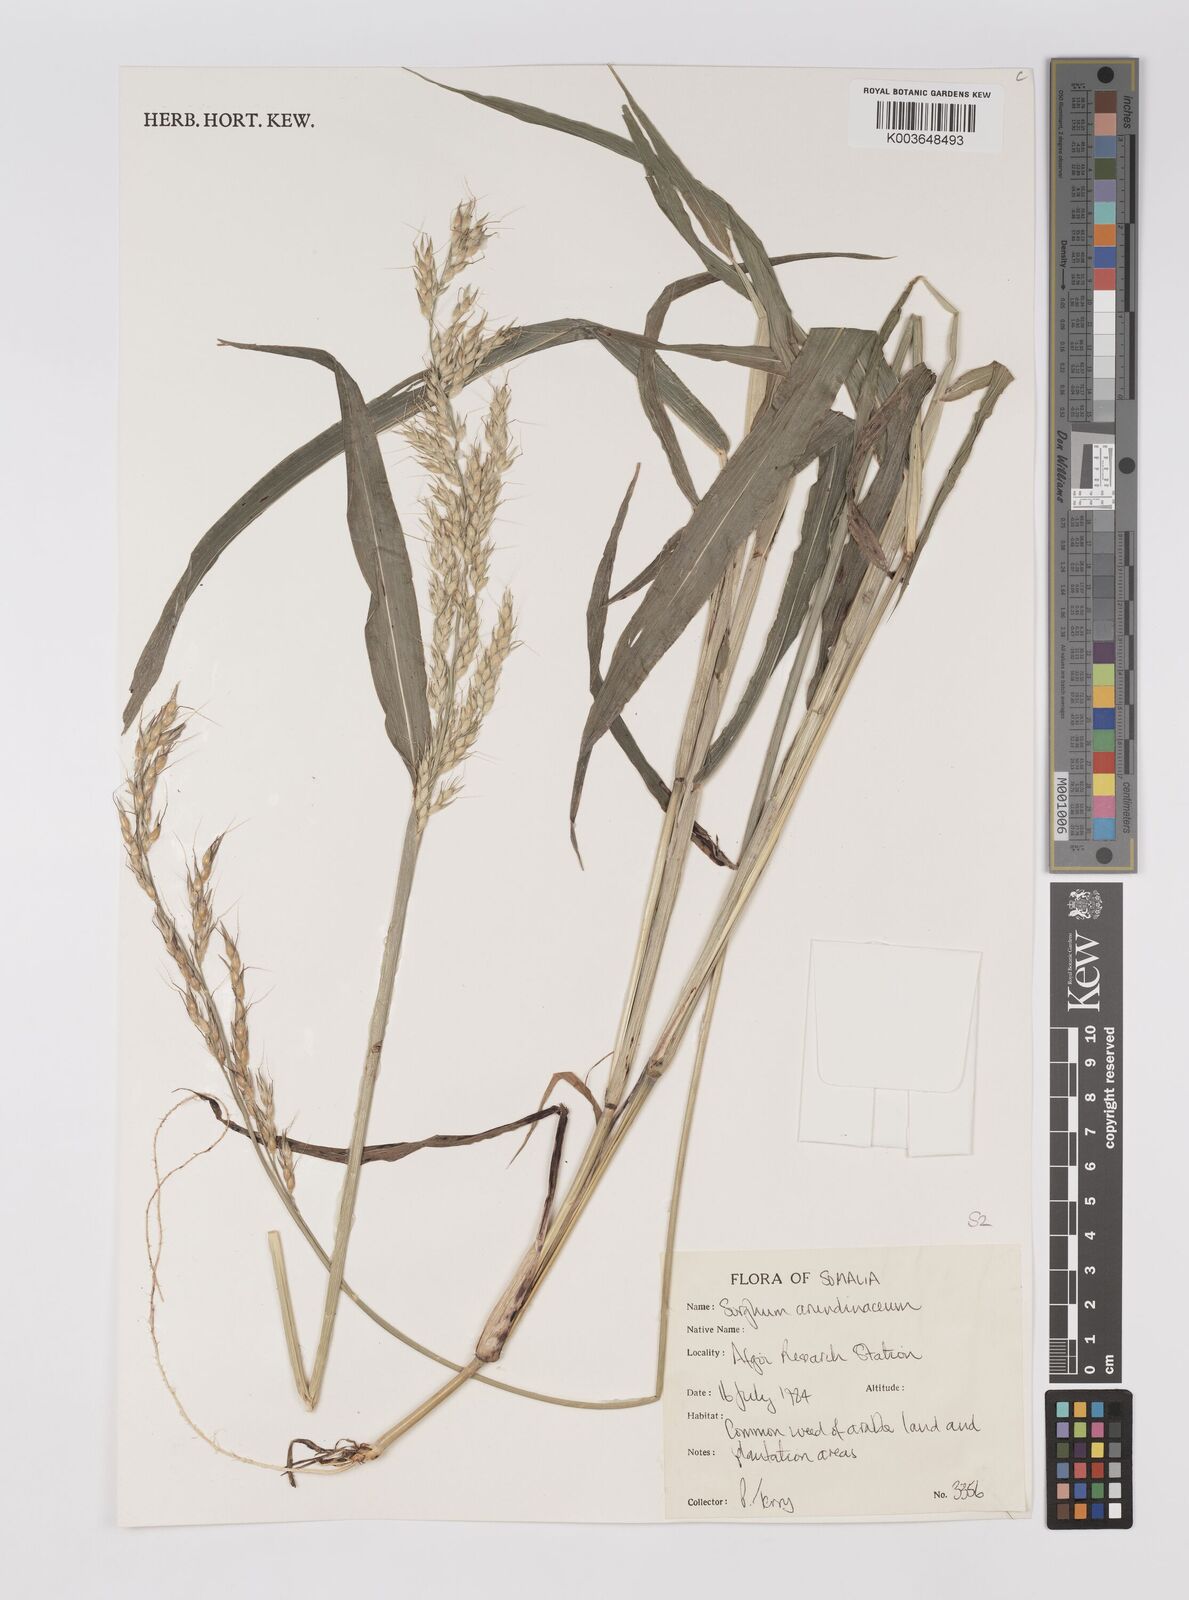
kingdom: Plantae
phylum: Tracheophyta
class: Liliopsida
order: Poales
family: Poaceae
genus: Sorghum
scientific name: Sorghum arundinaceum
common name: Sorghum
